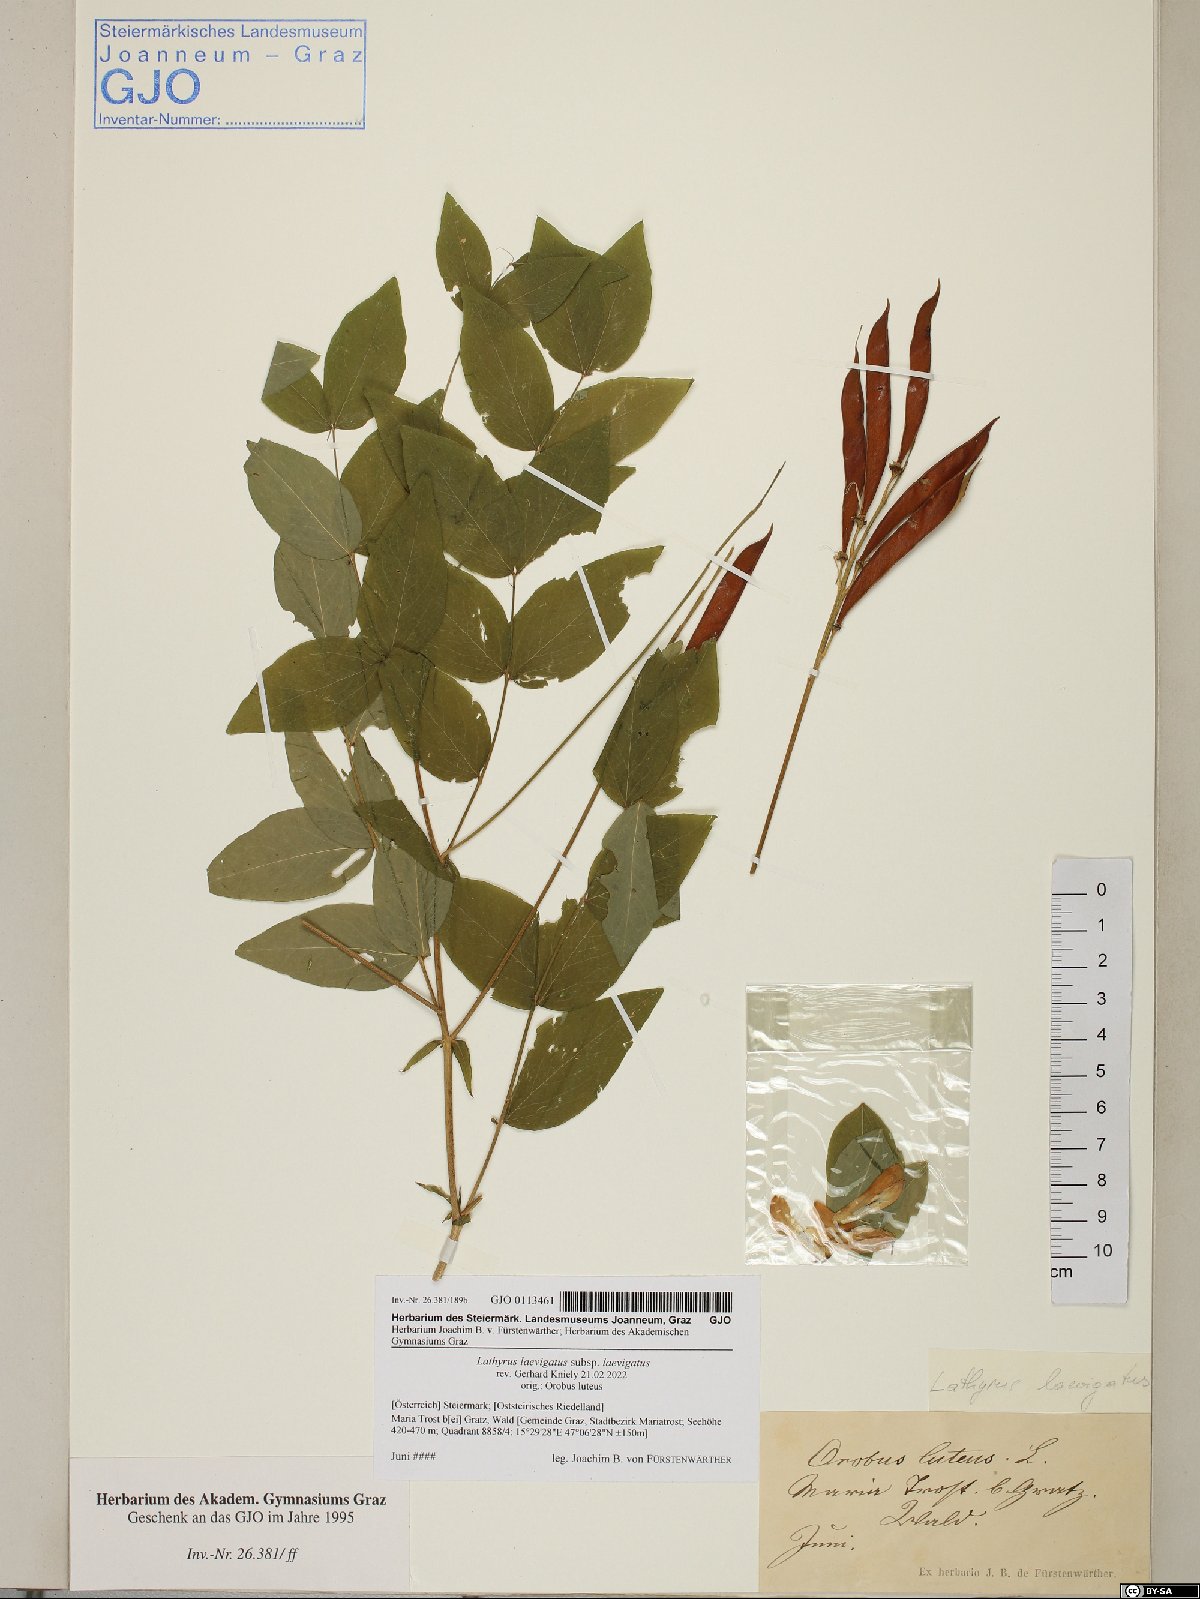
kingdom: Plantae
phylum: Tracheophyta
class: Magnoliopsida
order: Fabales
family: Fabaceae
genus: Lathyrus
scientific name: Lathyrus laevigatus
